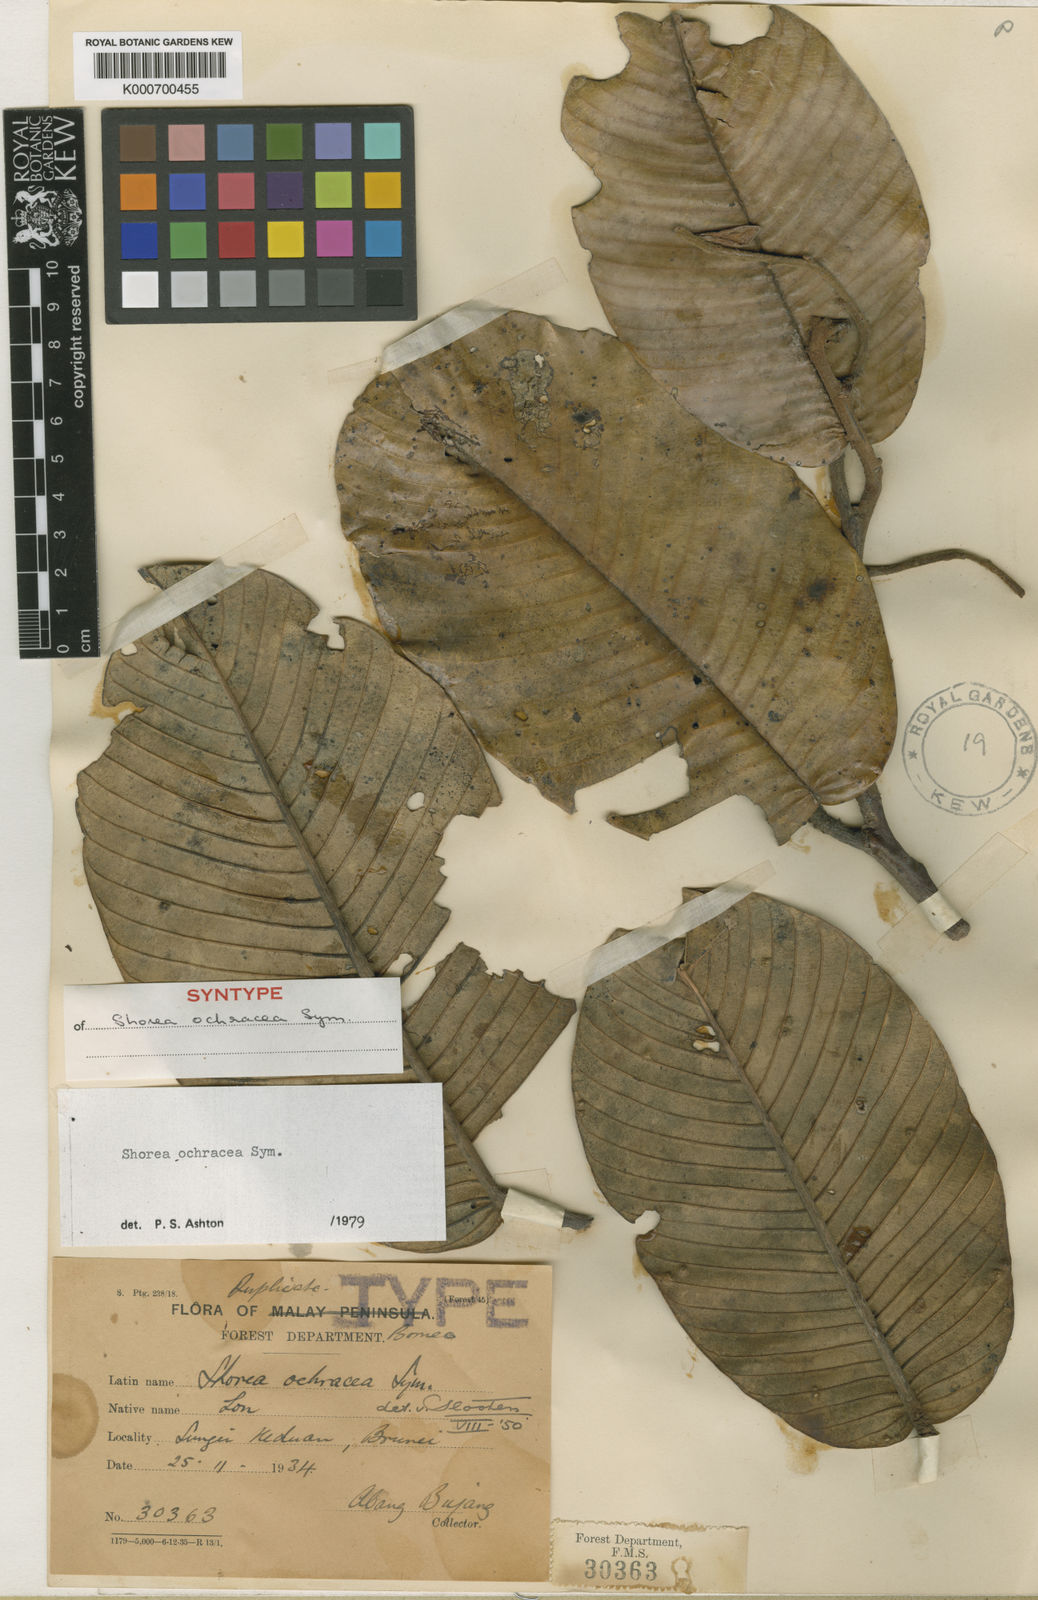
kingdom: Plantae
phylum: Tracheophyta
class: Magnoliopsida
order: Malvales
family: Dipterocarpaceae
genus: Anthoshorea
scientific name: Anthoshorea ochracea
